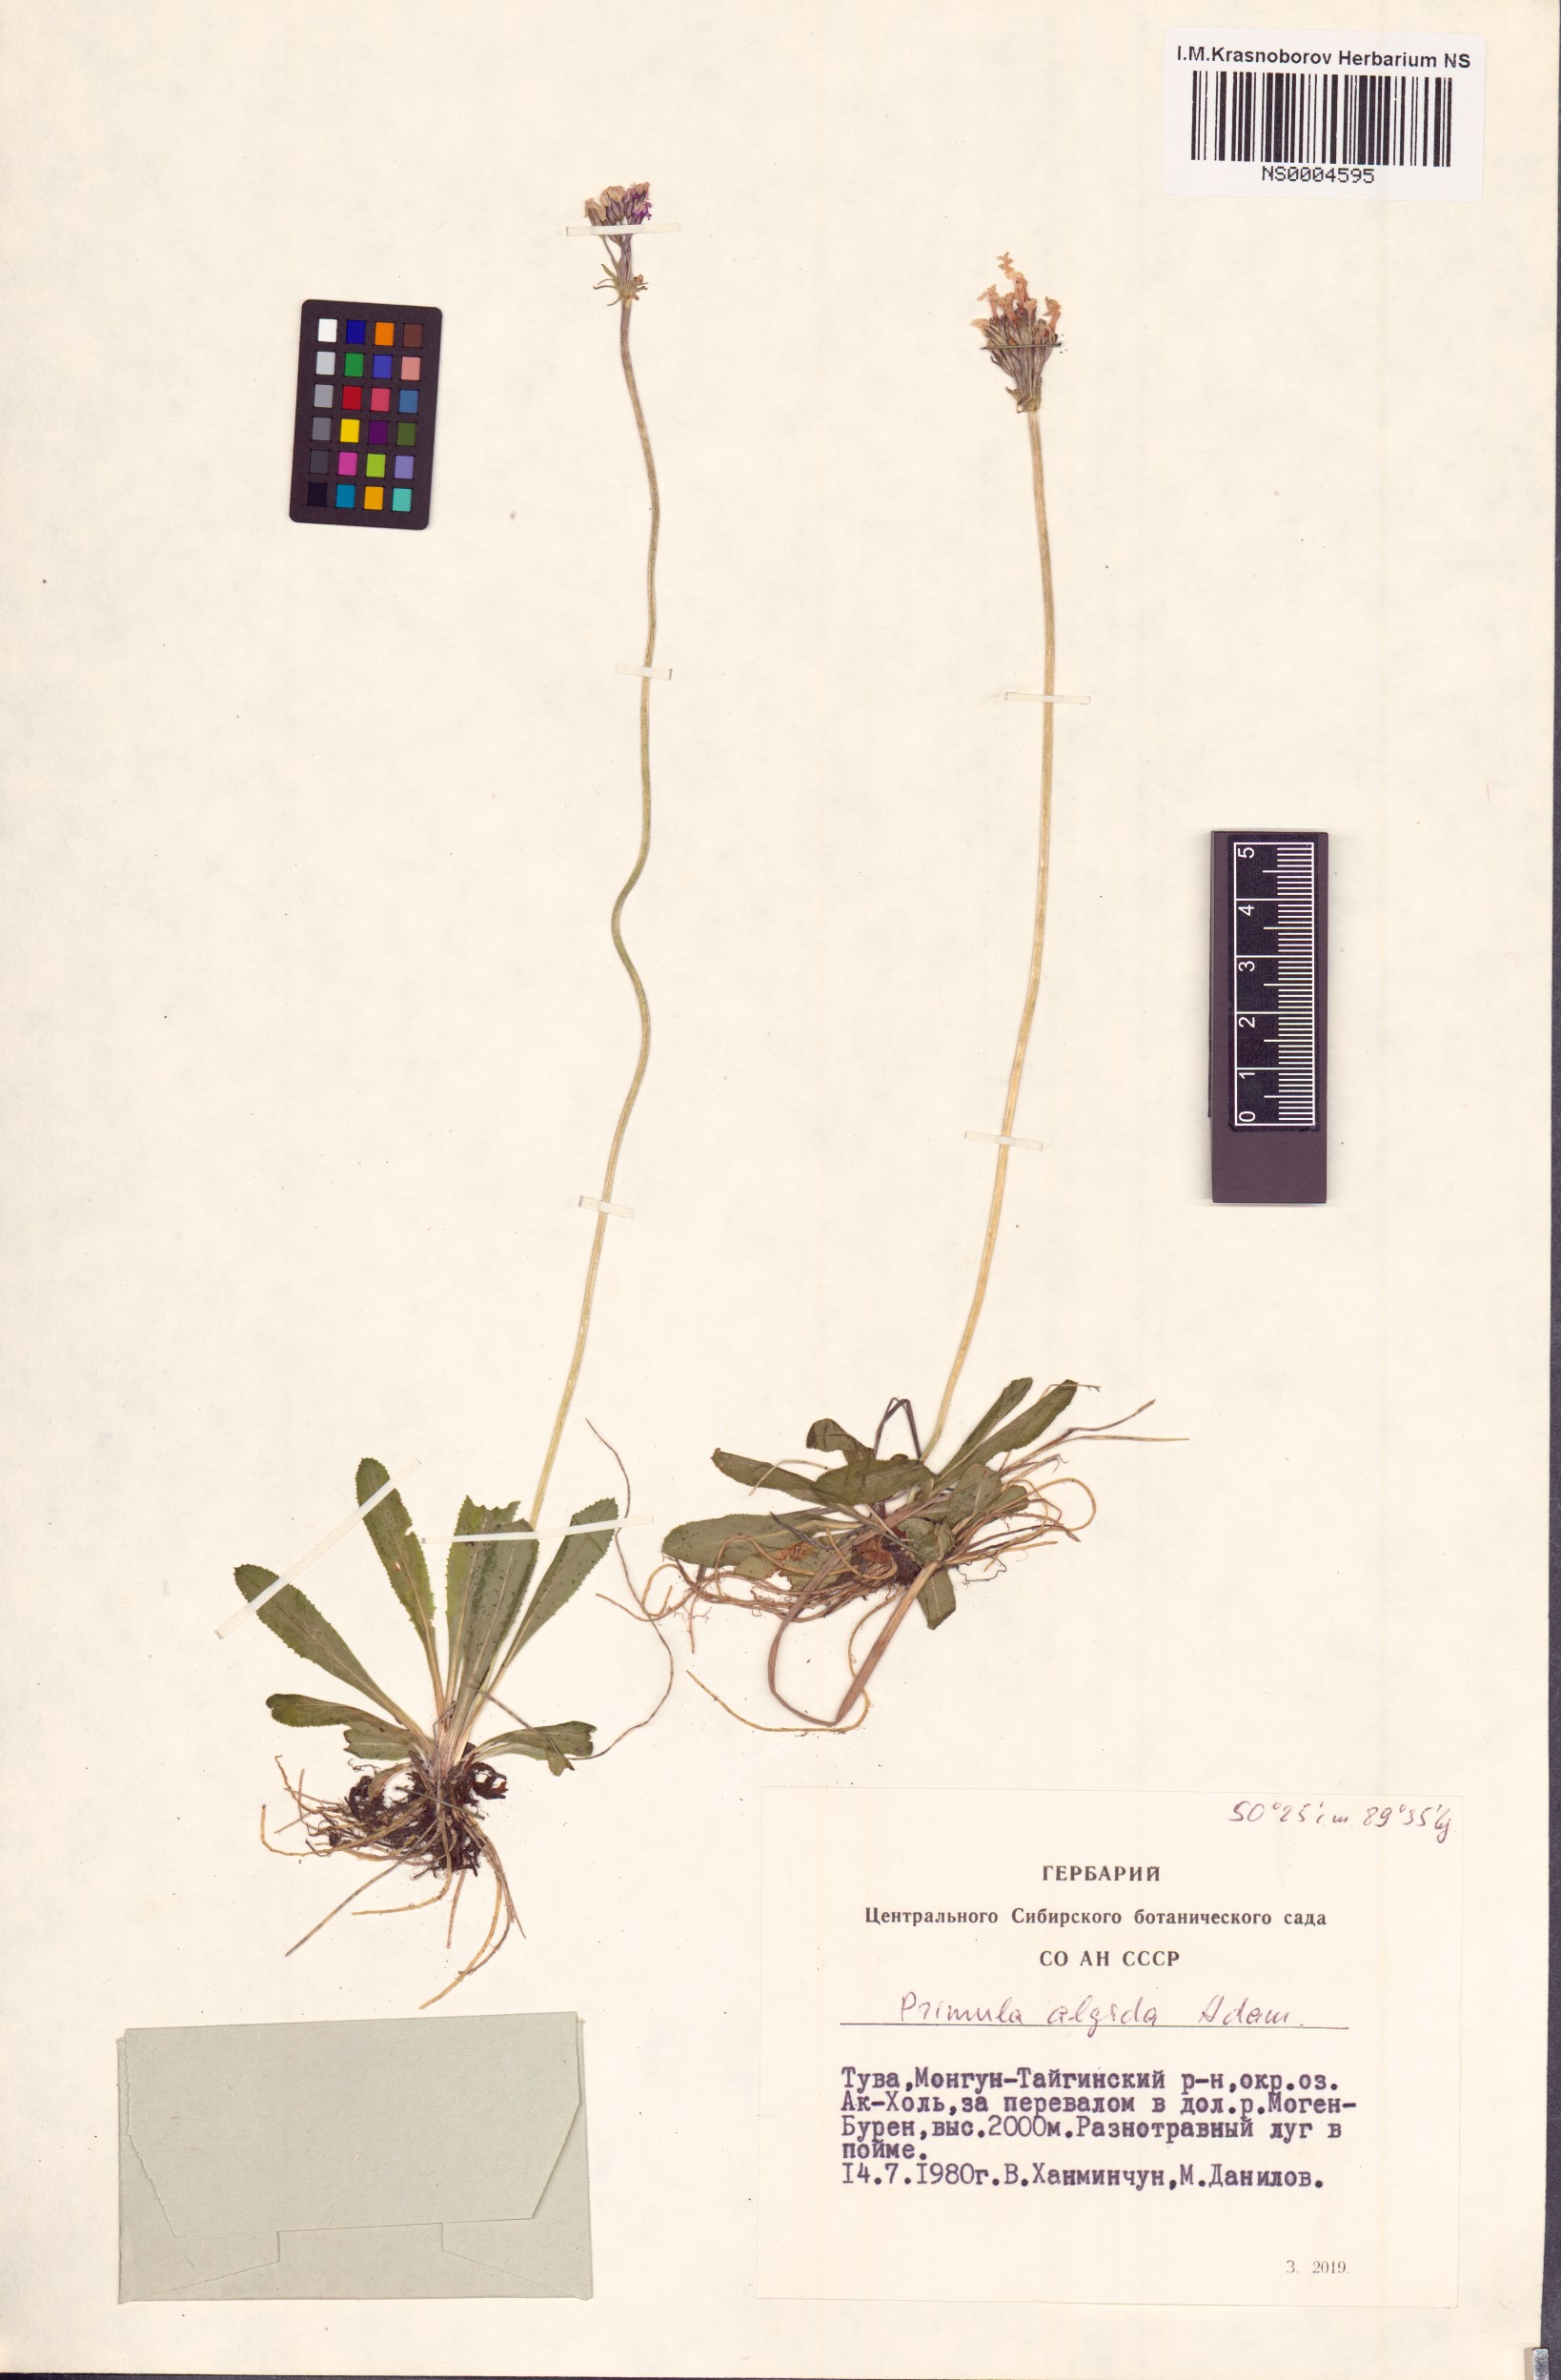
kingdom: Plantae
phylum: Tracheophyta
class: Magnoliopsida
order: Ericales
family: Primulaceae
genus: Primula
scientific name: Primula algida
